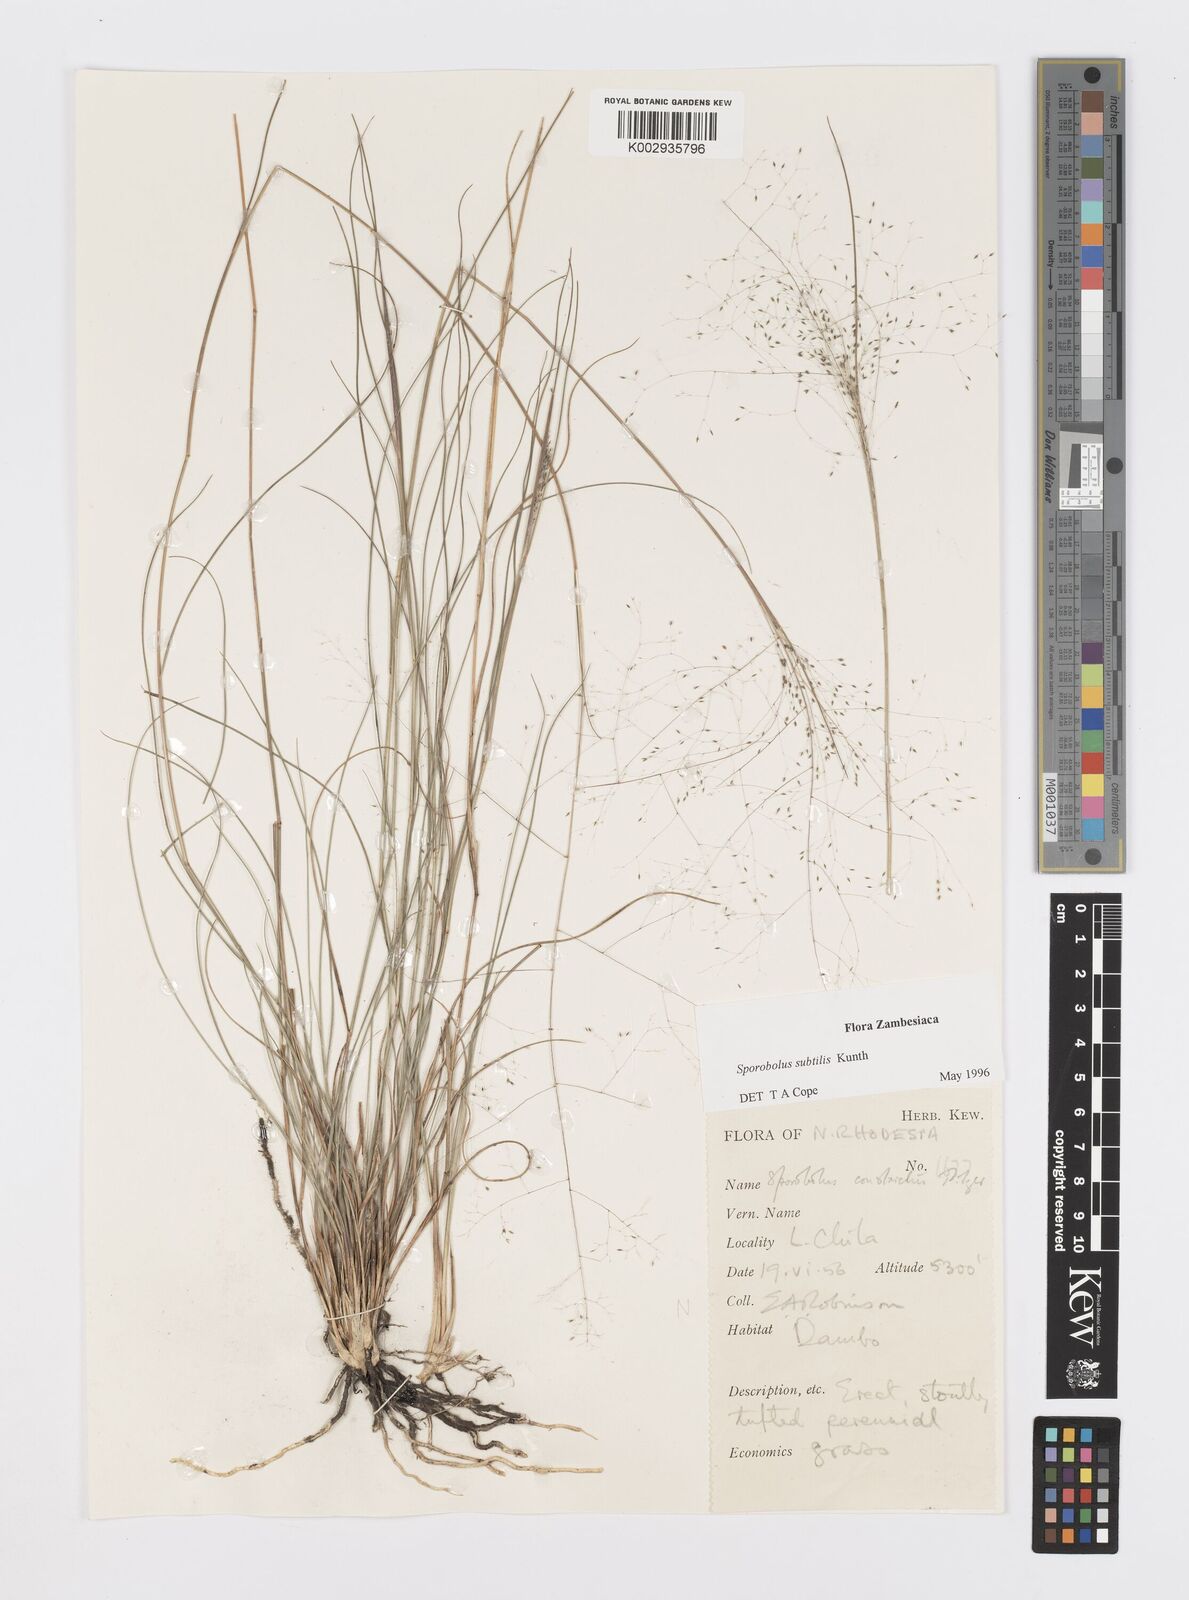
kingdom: Plantae
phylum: Tracheophyta
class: Liliopsida
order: Poales
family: Poaceae
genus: Sporobolus
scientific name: Sporobolus subtilis
